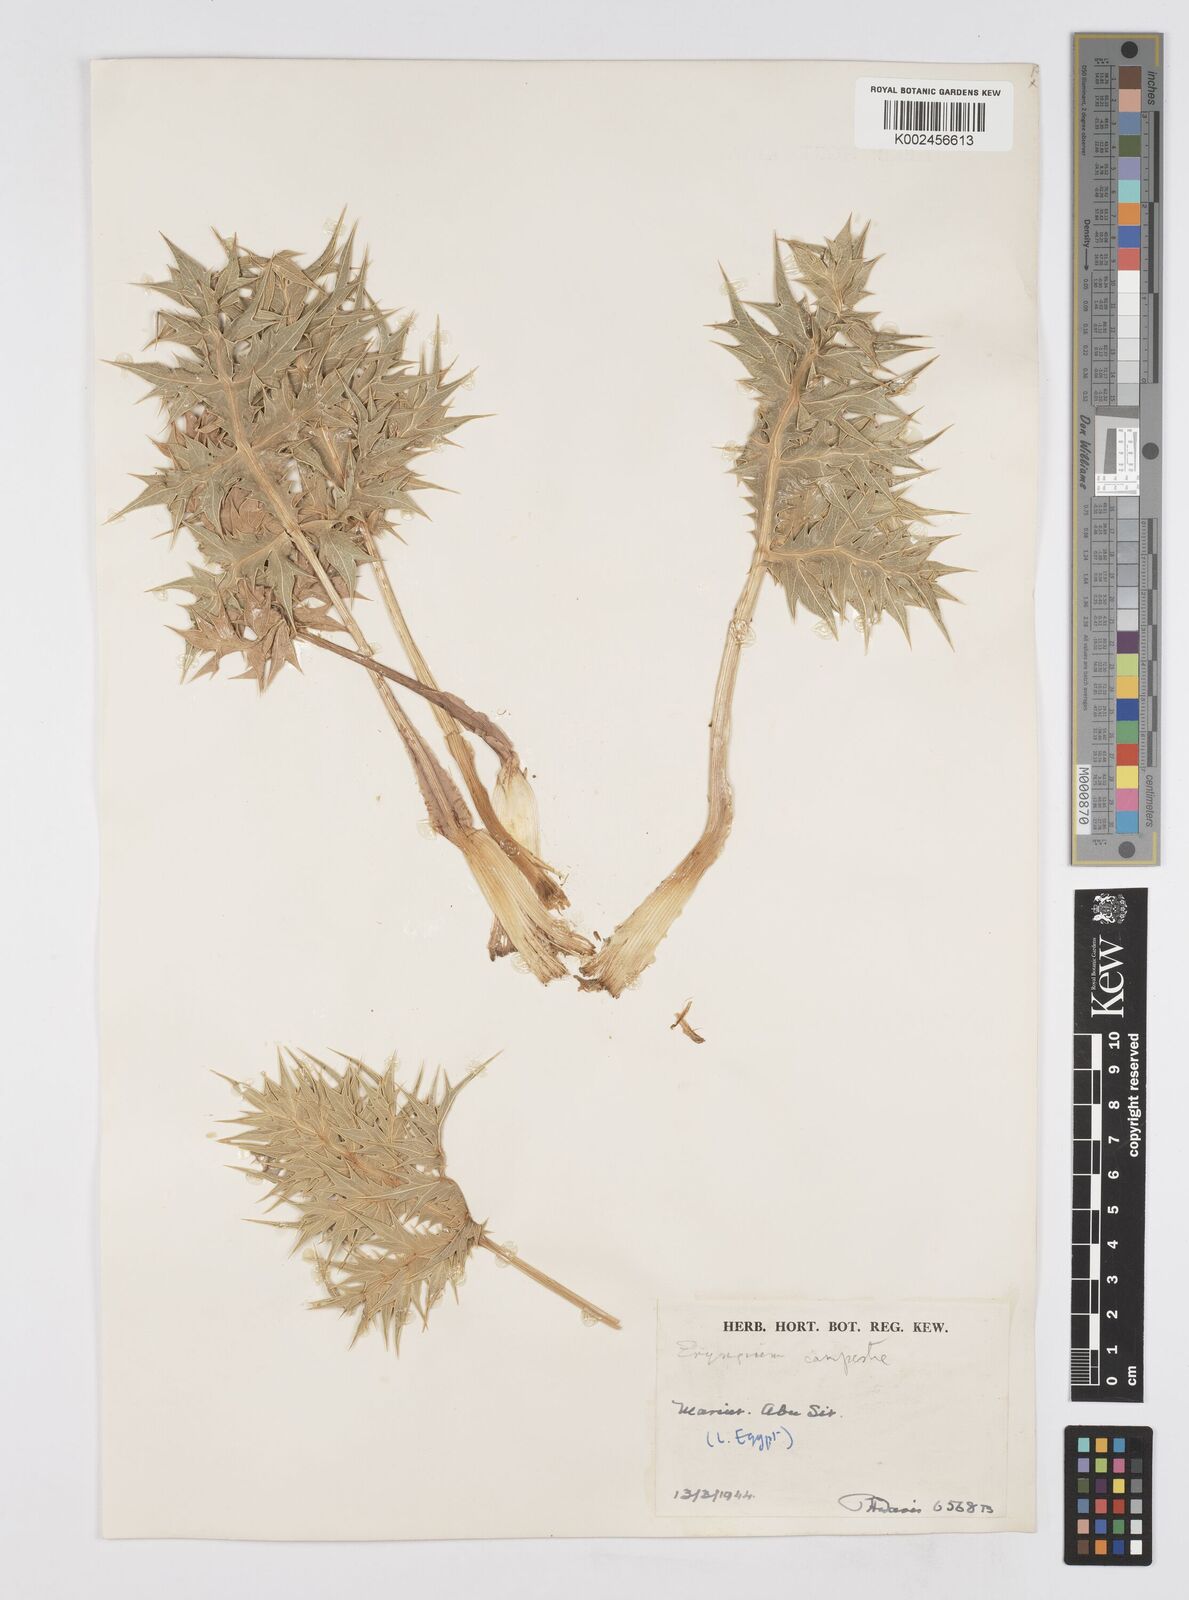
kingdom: Plantae
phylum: Tracheophyta
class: Magnoliopsida
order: Apiales
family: Apiaceae
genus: Eryngium
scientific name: Eryngium campestre
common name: Field eryngo
